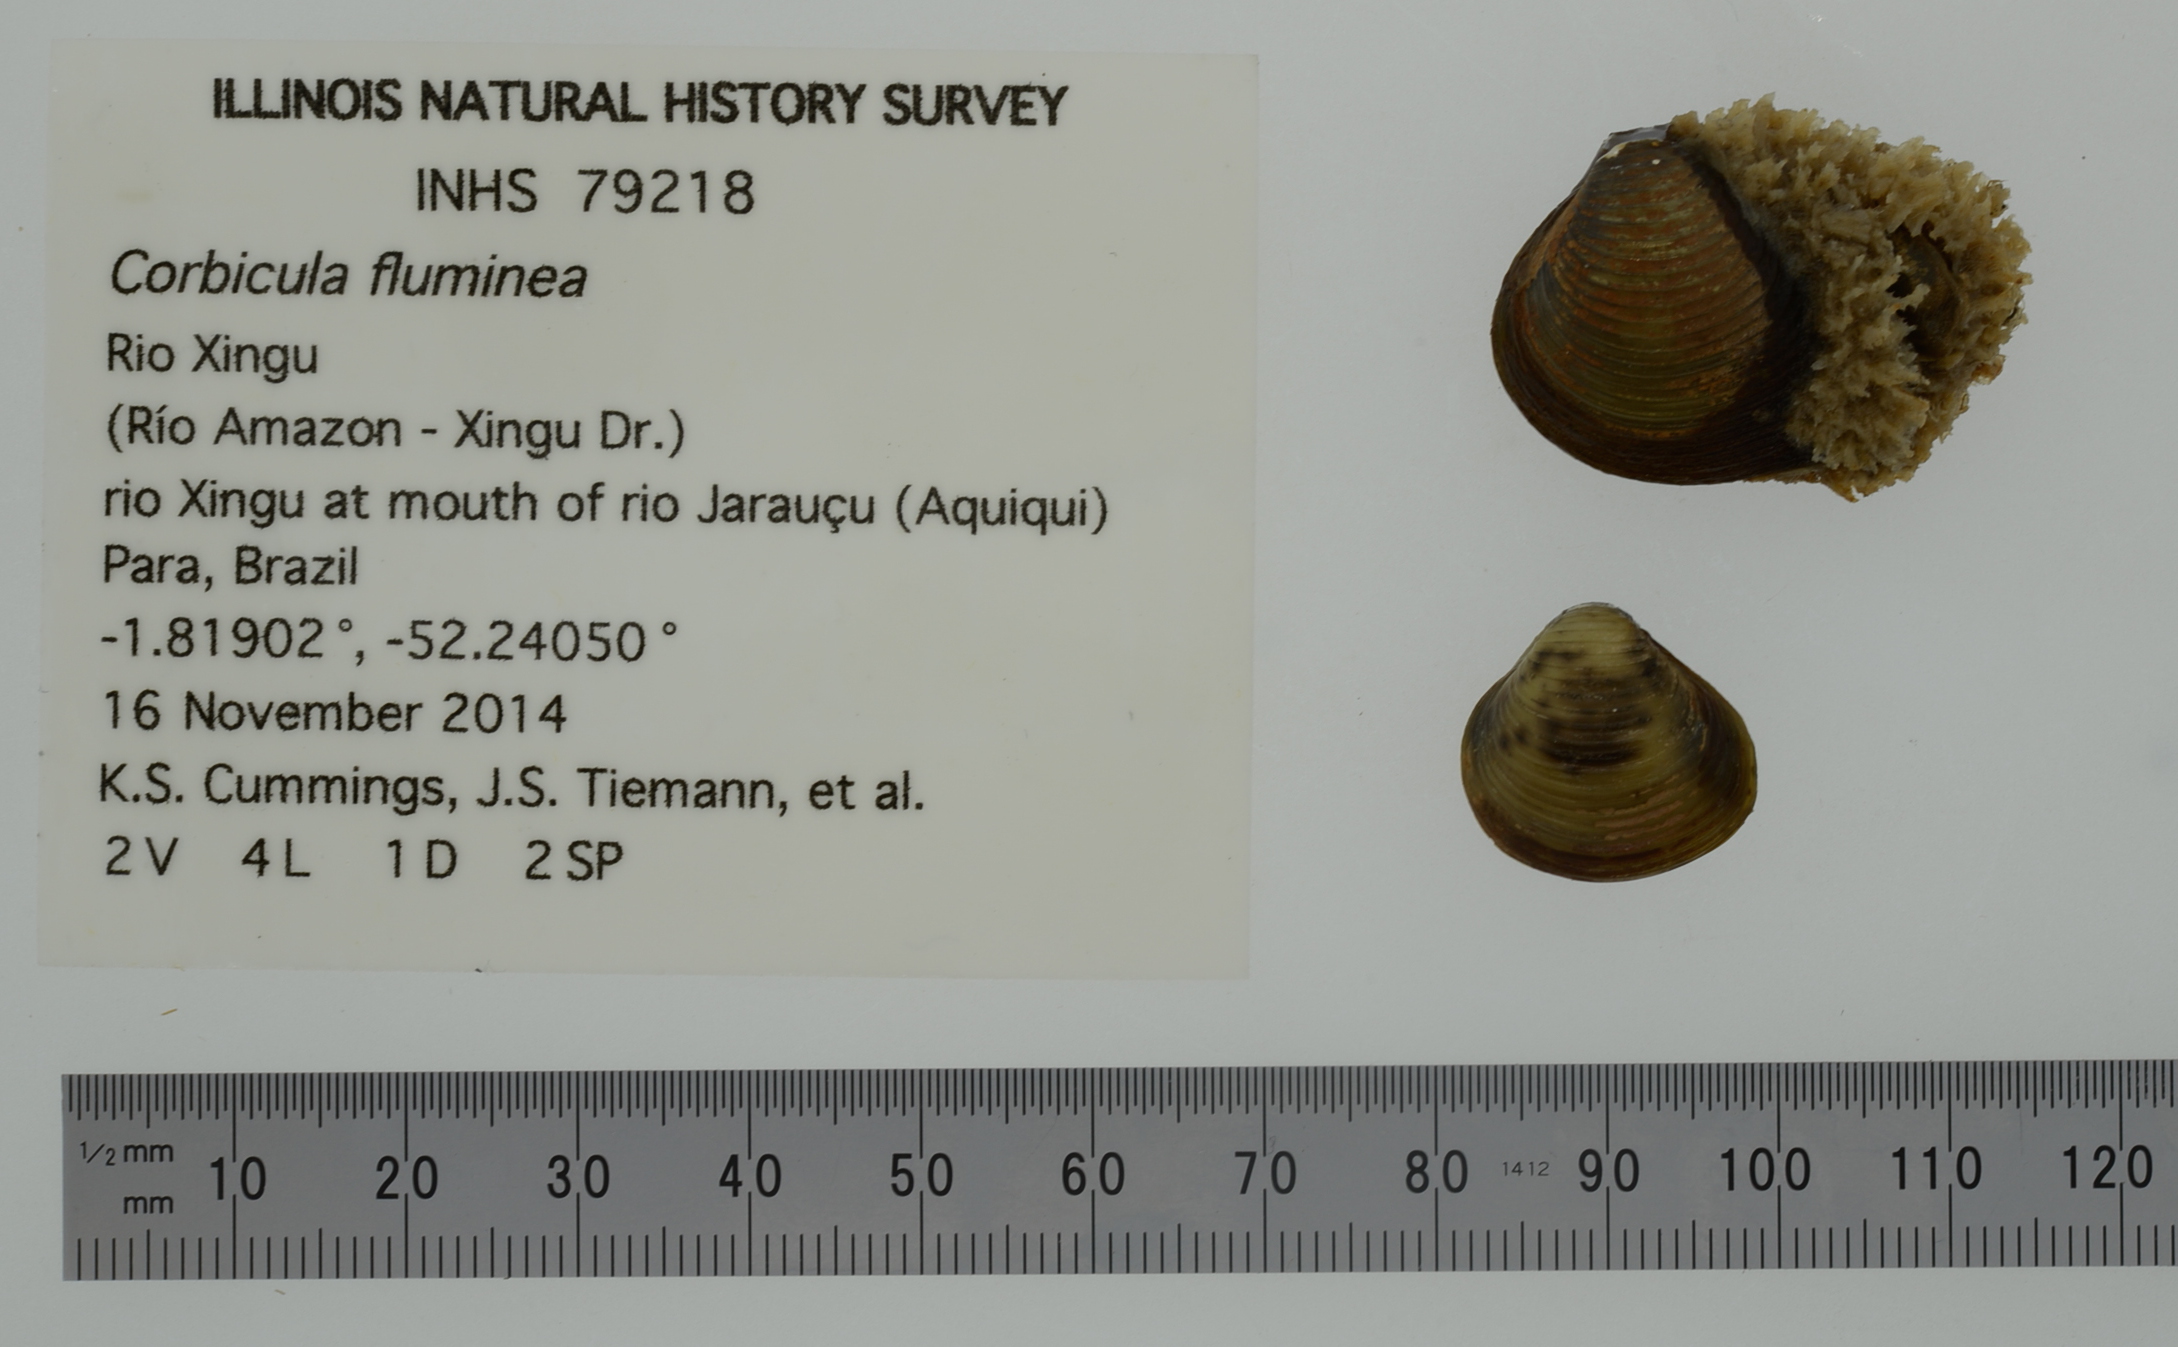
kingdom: Animalia
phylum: Mollusca
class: Bivalvia
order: Venerida
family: Cyrenidae
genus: Corbicula
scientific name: Corbicula fluminea
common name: Asian clam
